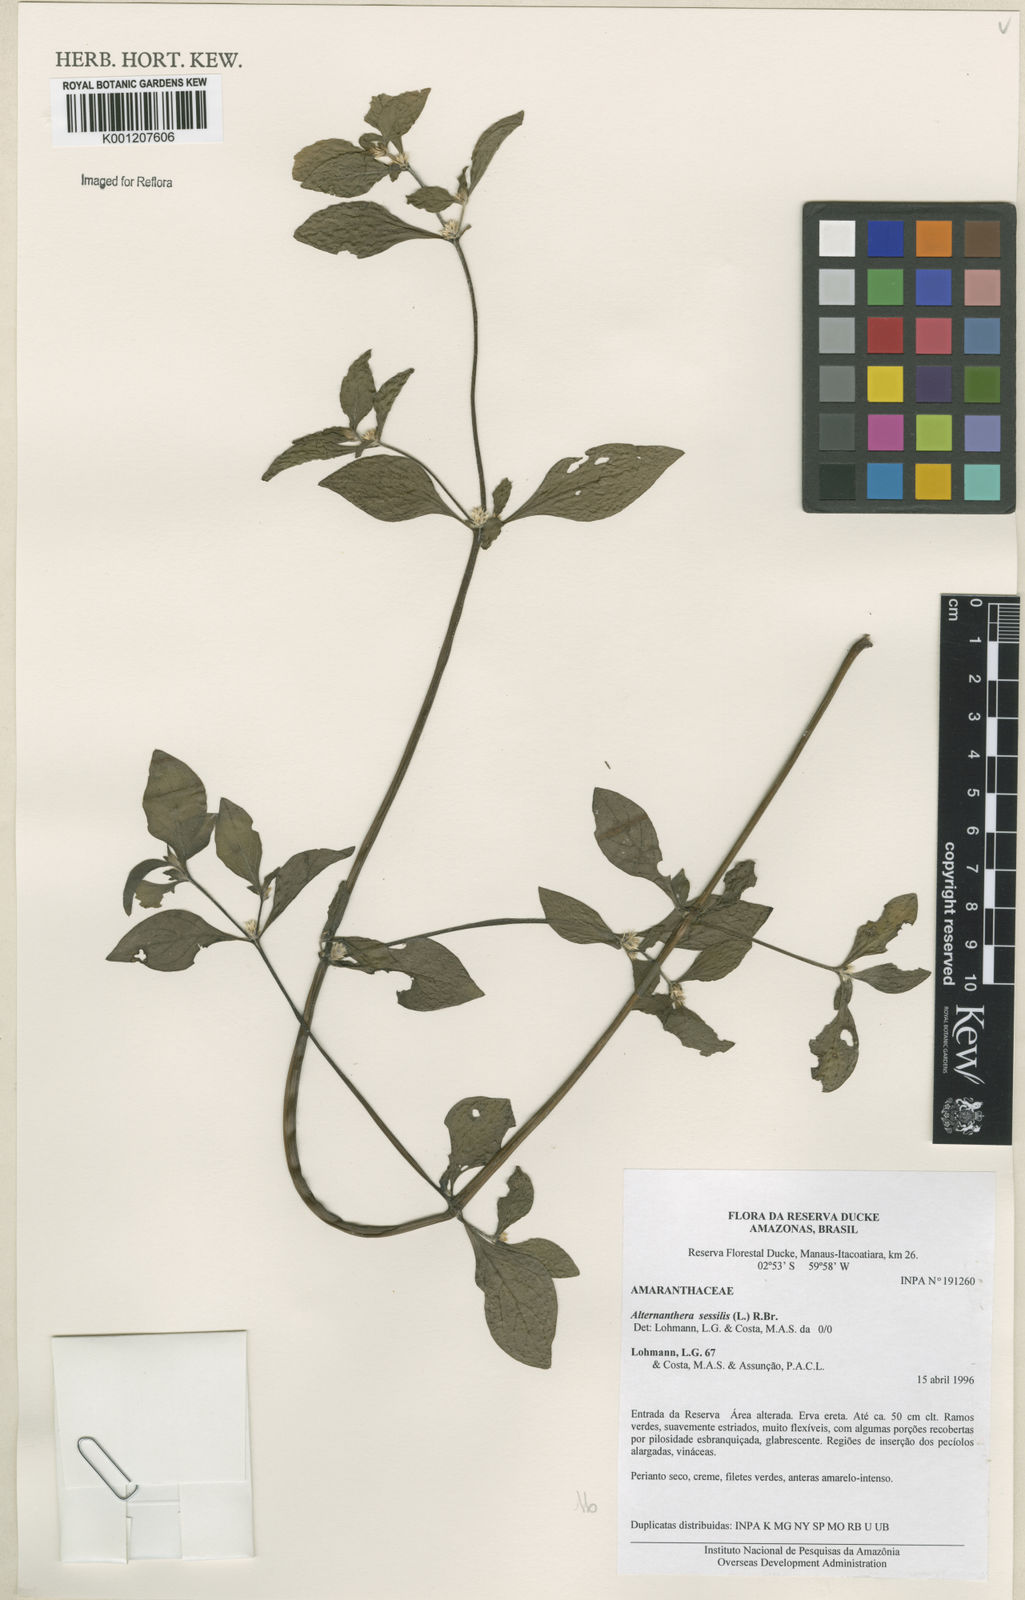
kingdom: Plantae
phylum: Tracheophyta
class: Magnoliopsida
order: Caryophyllales
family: Amaranthaceae
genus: Alternanthera
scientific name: Alternanthera
